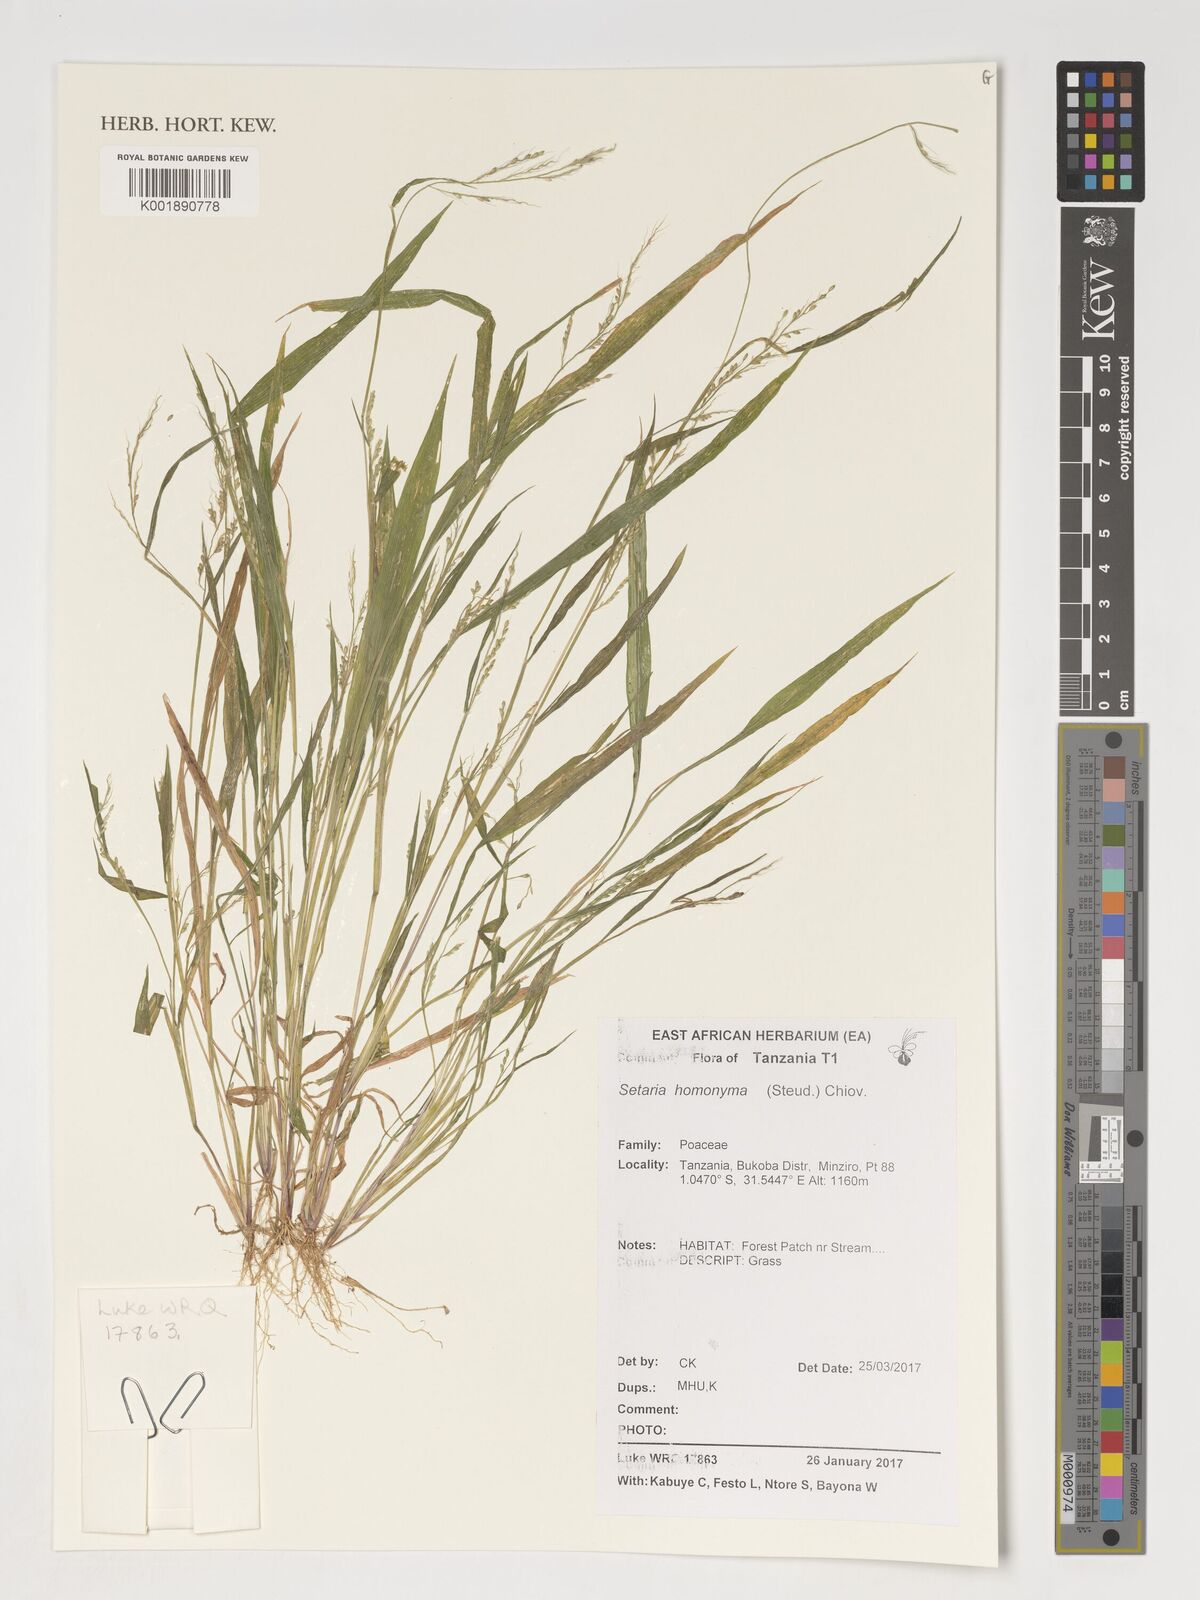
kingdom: Plantae
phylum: Tracheophyta
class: Liliopsida
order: Poales
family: Poaceae
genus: Setaria
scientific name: Setaria homonyma
